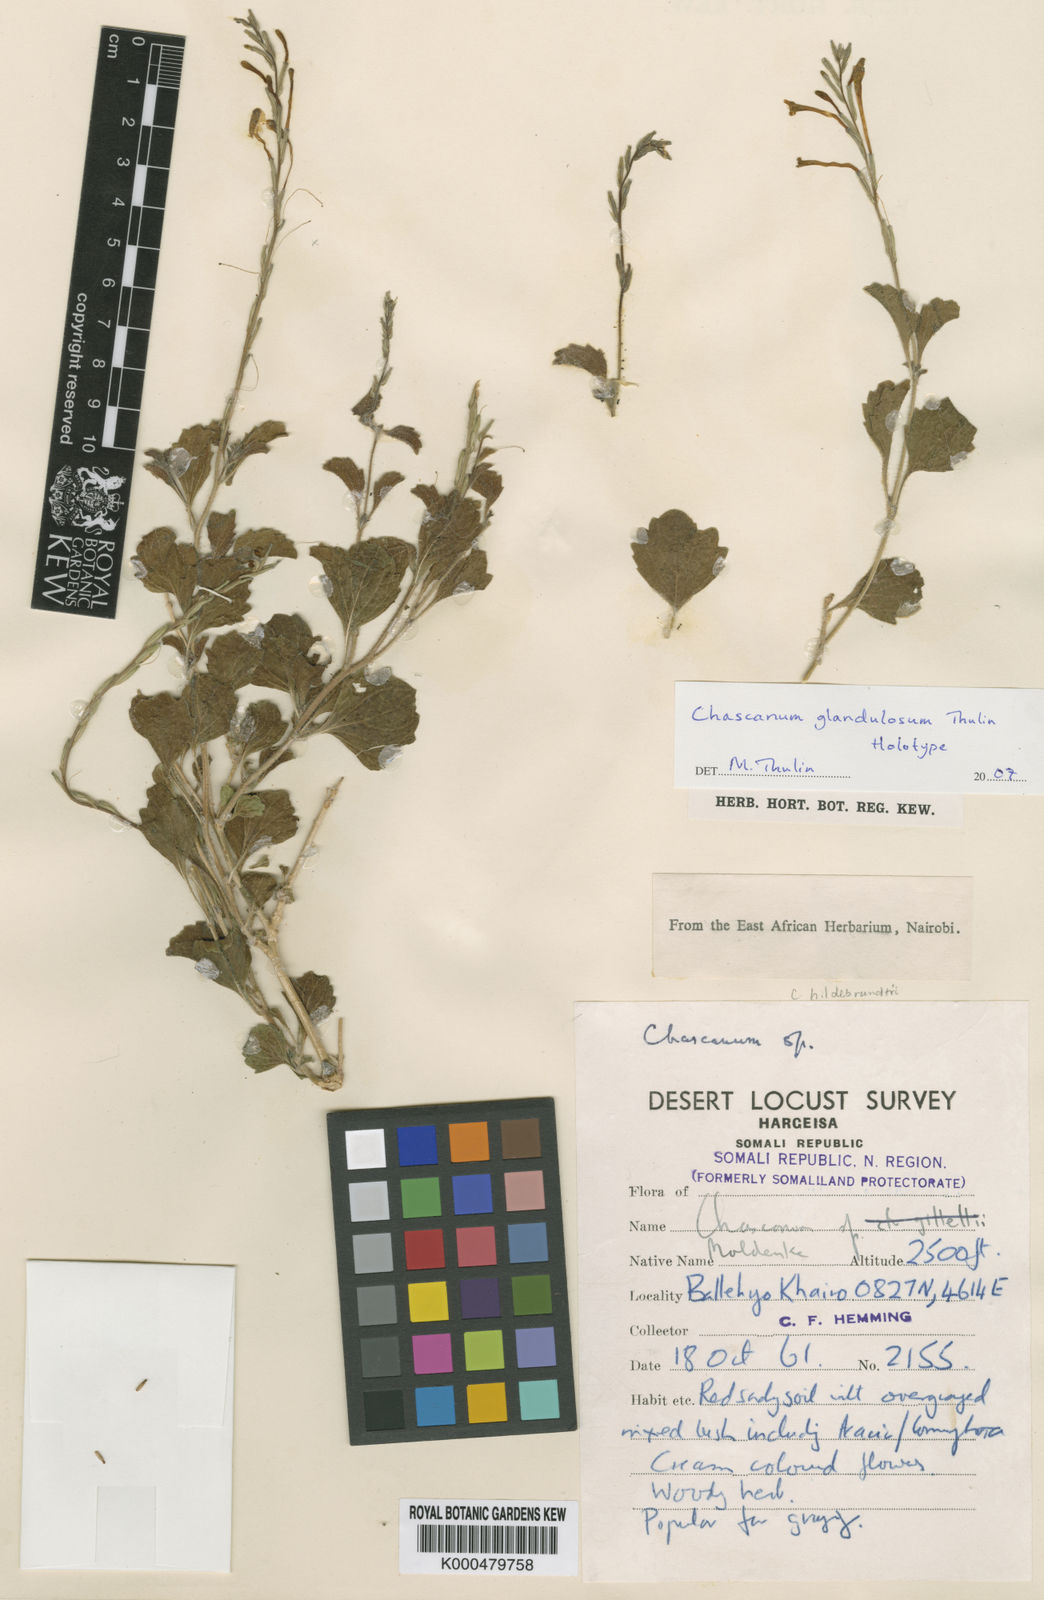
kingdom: Plantae
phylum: Tracheophyta
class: Magnoliopsida
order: Lamiales
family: Verbenaceae
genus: Chascanum
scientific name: Chascanum glandulosum
